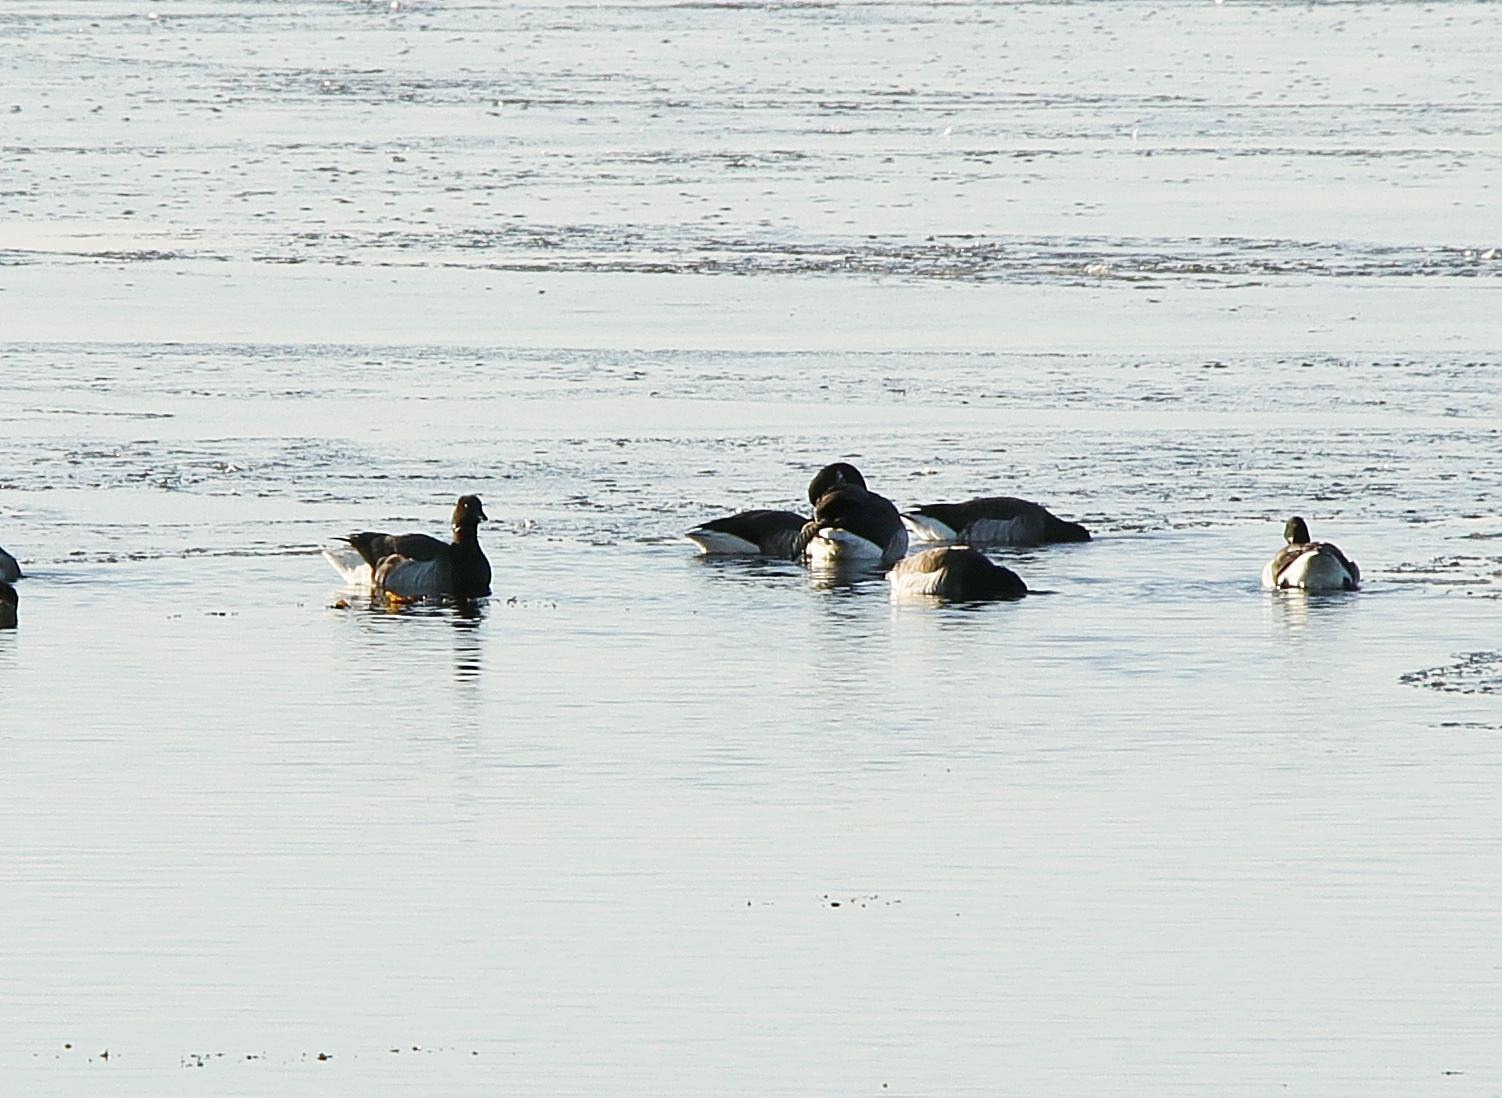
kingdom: Animalia
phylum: Chordata
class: Aves
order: Anseriformes
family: Anatidae
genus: Branta
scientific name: Branta bernicla
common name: Knortegås
